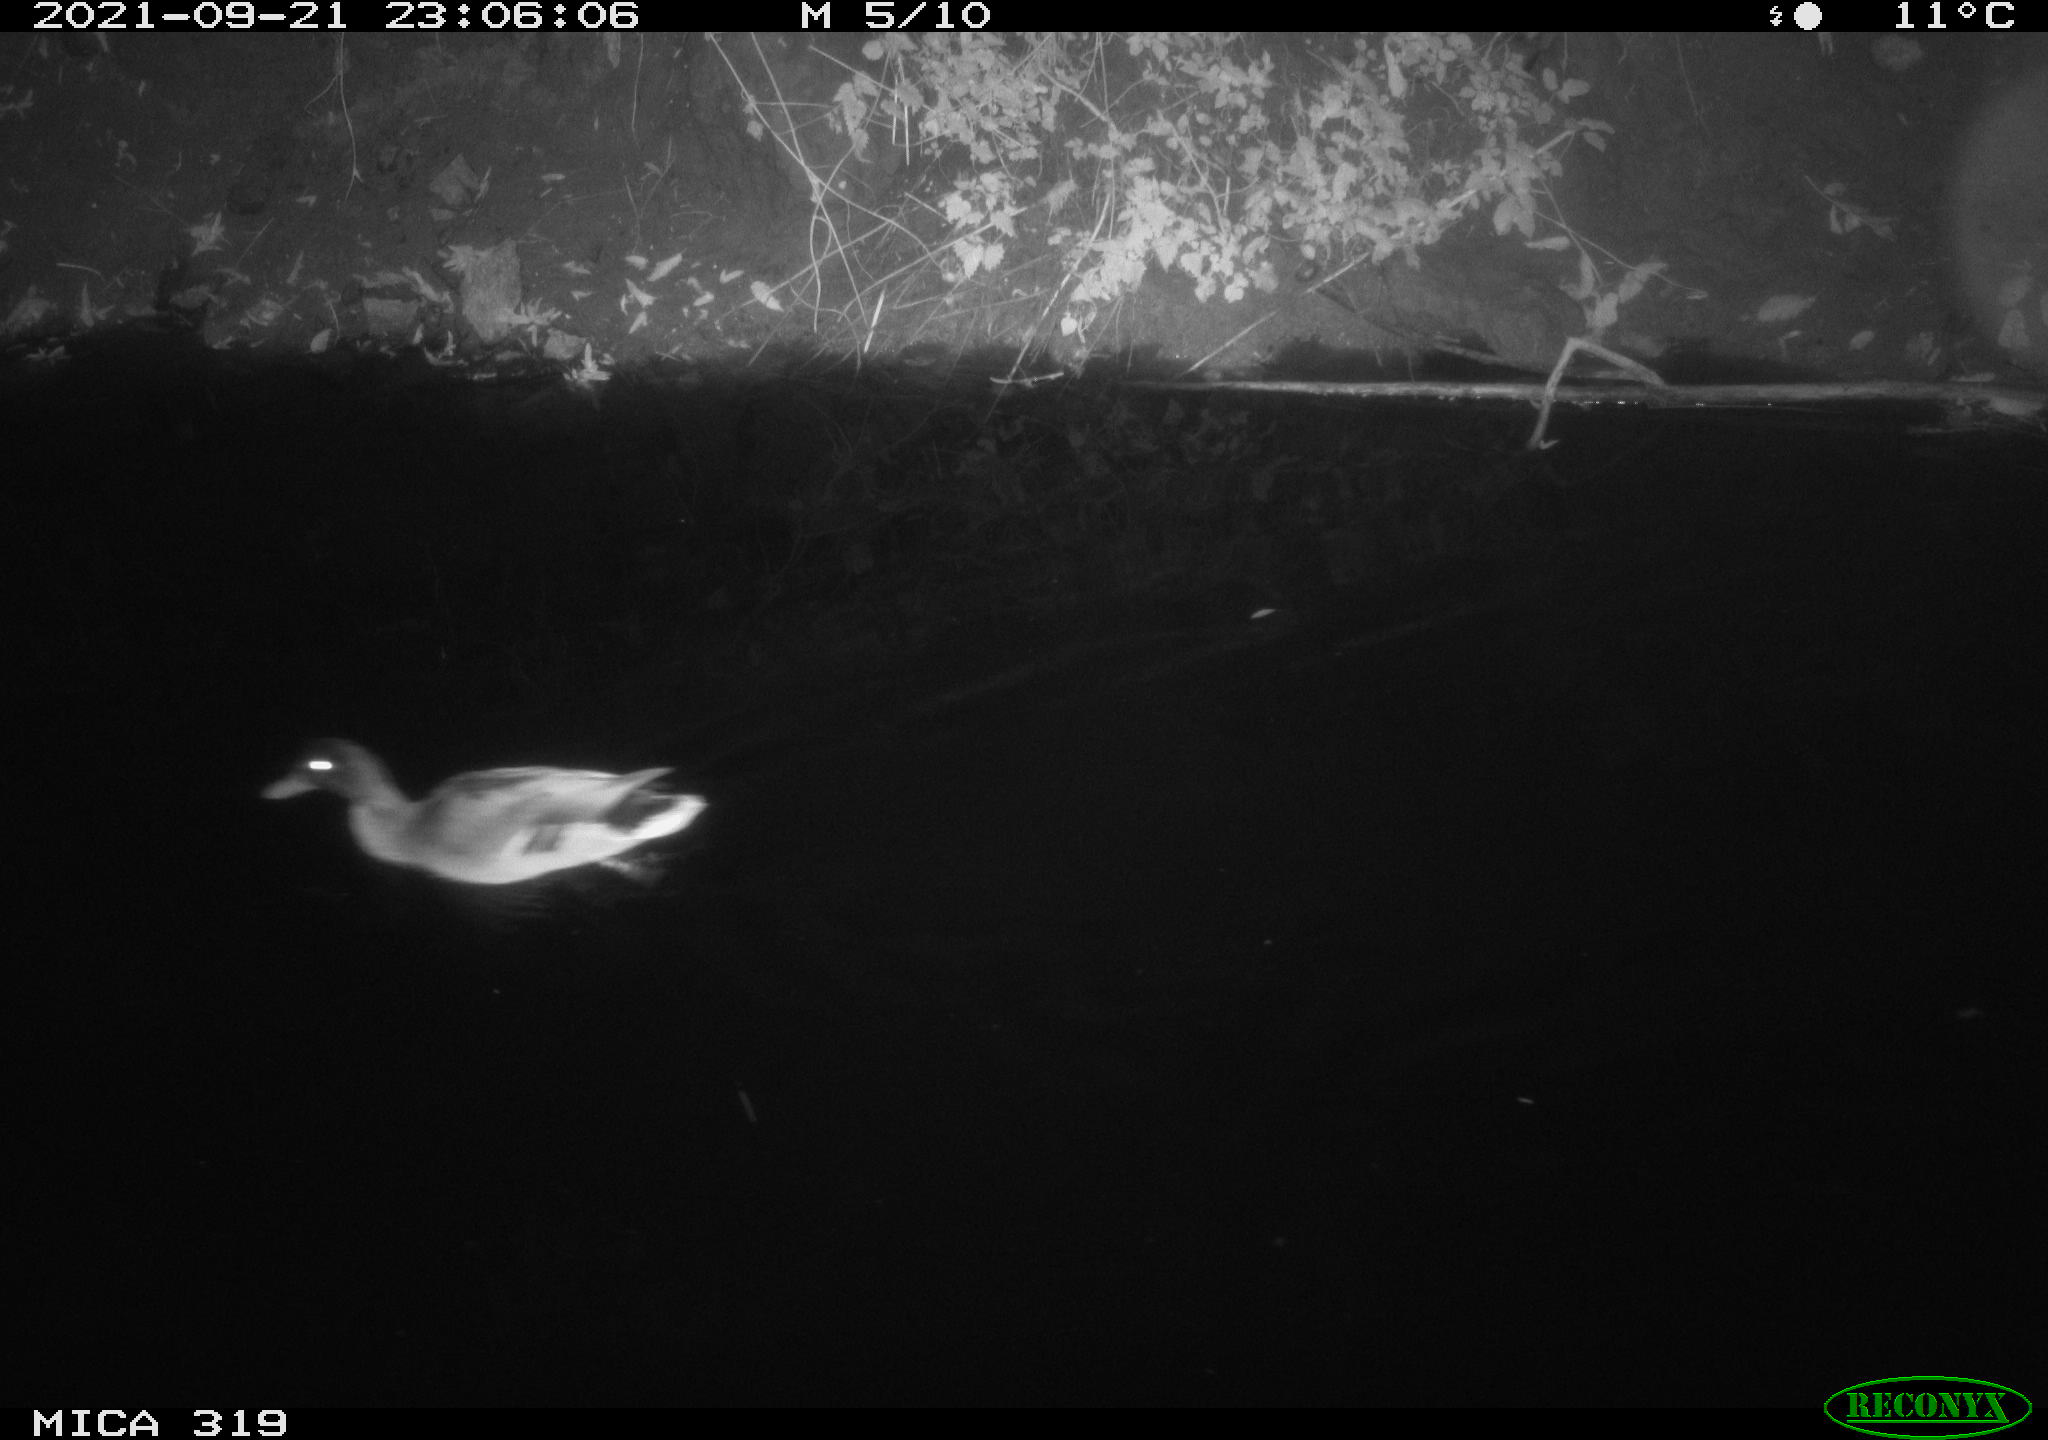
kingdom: Animalia
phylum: Chordata
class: Aves
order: Anseriformes
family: Anatidae
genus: Anas
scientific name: Anas platyrhynchos
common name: Mallard
